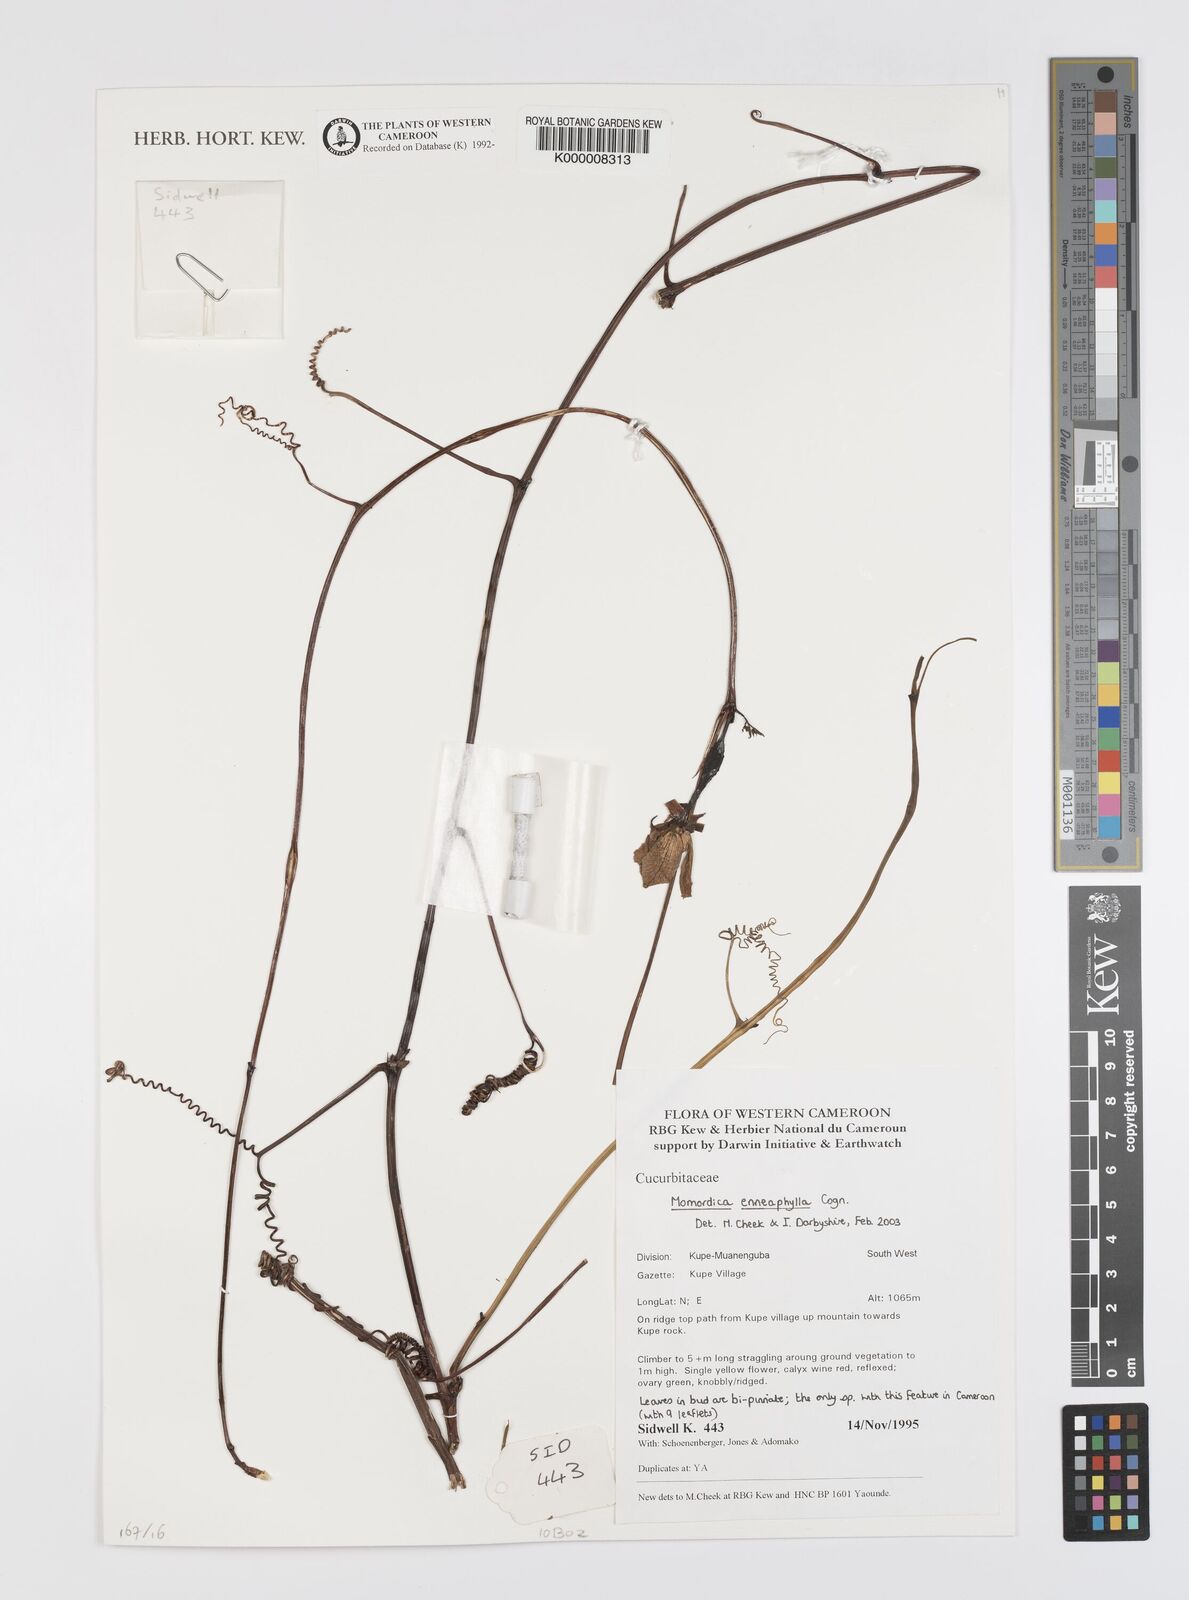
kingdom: Plantae
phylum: Tracheophyta
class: Magnoliopsida
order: Cucurbitales
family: Cucurbitaceae
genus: Momordica
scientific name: Momordica enneaphylla
